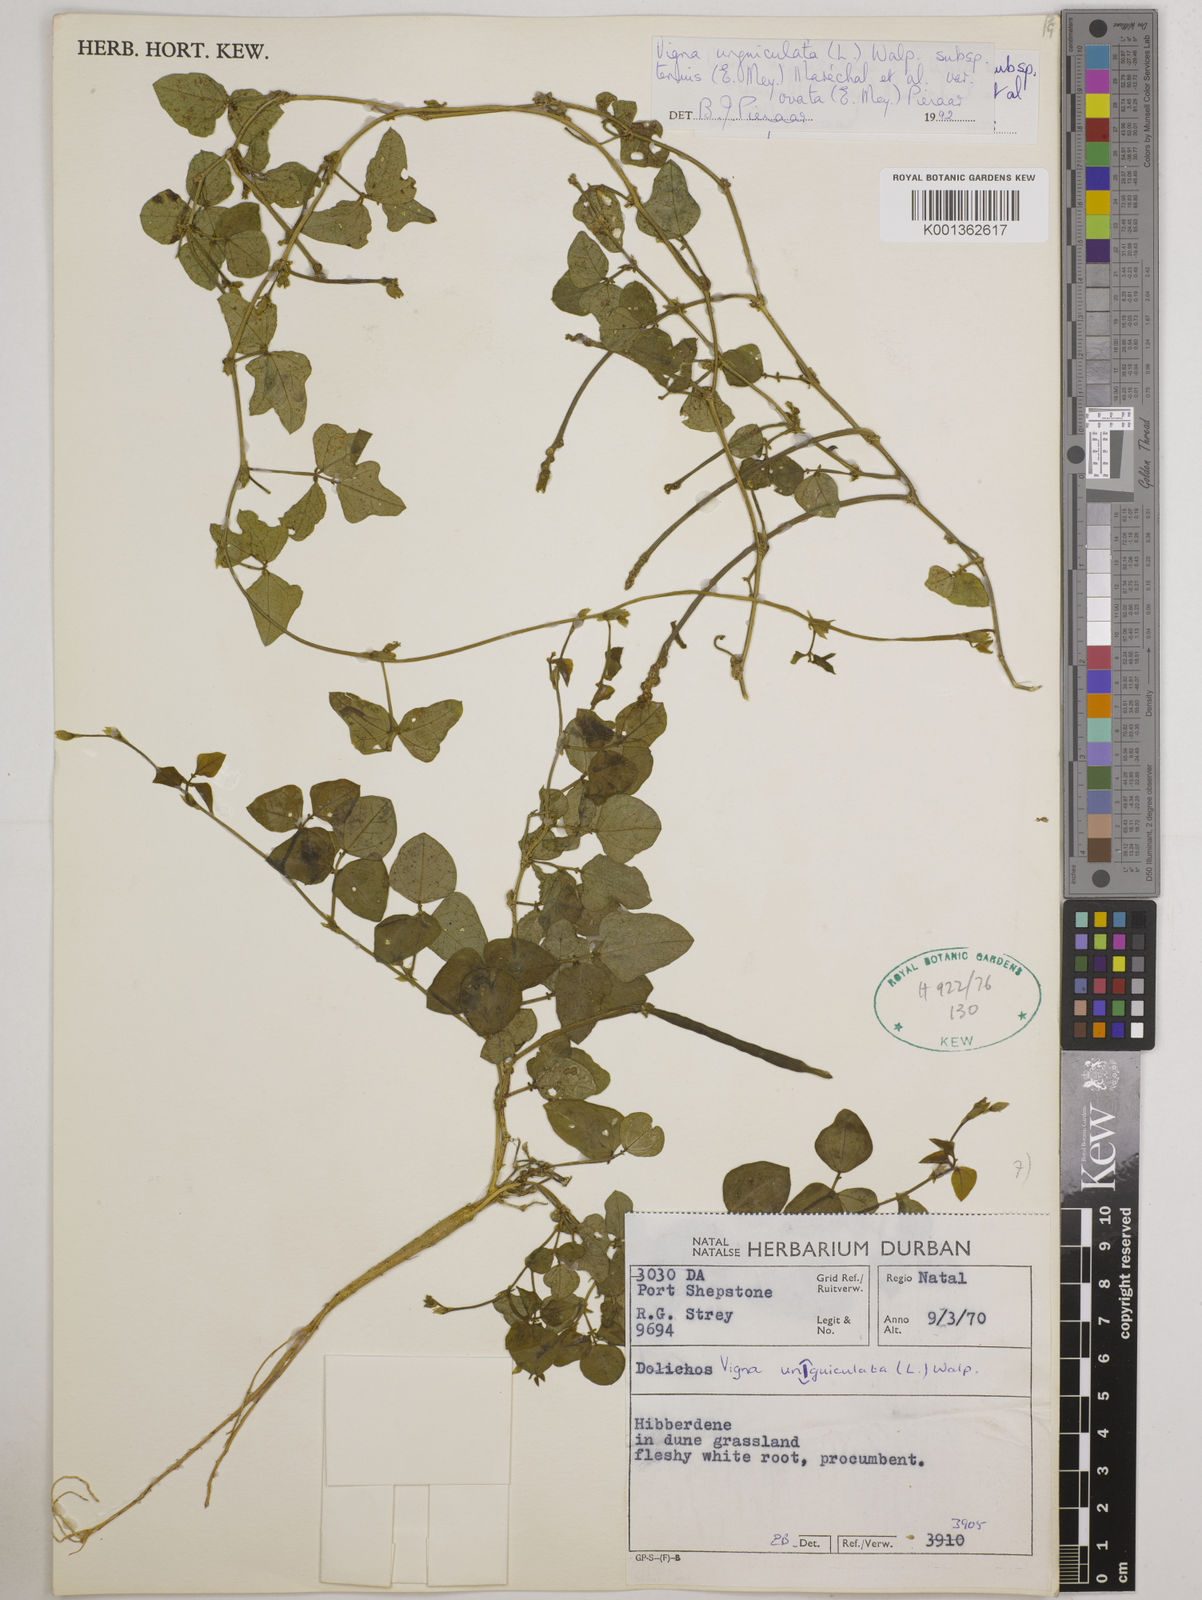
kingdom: Plantae
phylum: Tracheophyta
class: Magnoliopsida
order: Fabales
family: Fabaceae
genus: Vigna
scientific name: Vigna
